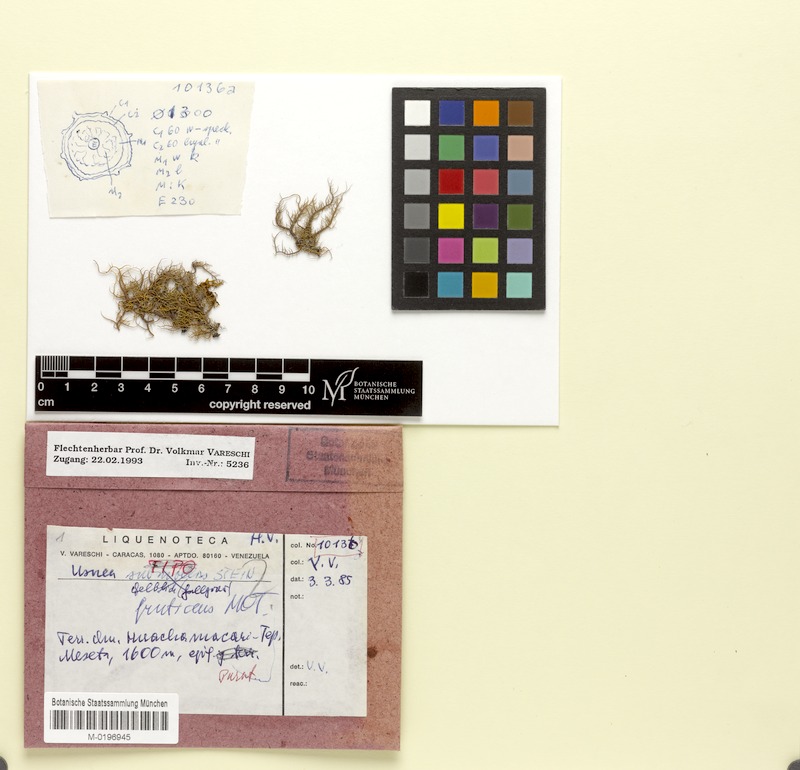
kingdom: Fungi
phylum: Ascomycota
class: Lecanoromycetes
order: Lecanorales
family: Parmeliaceae
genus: Usnea
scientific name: Usnea fruticans
